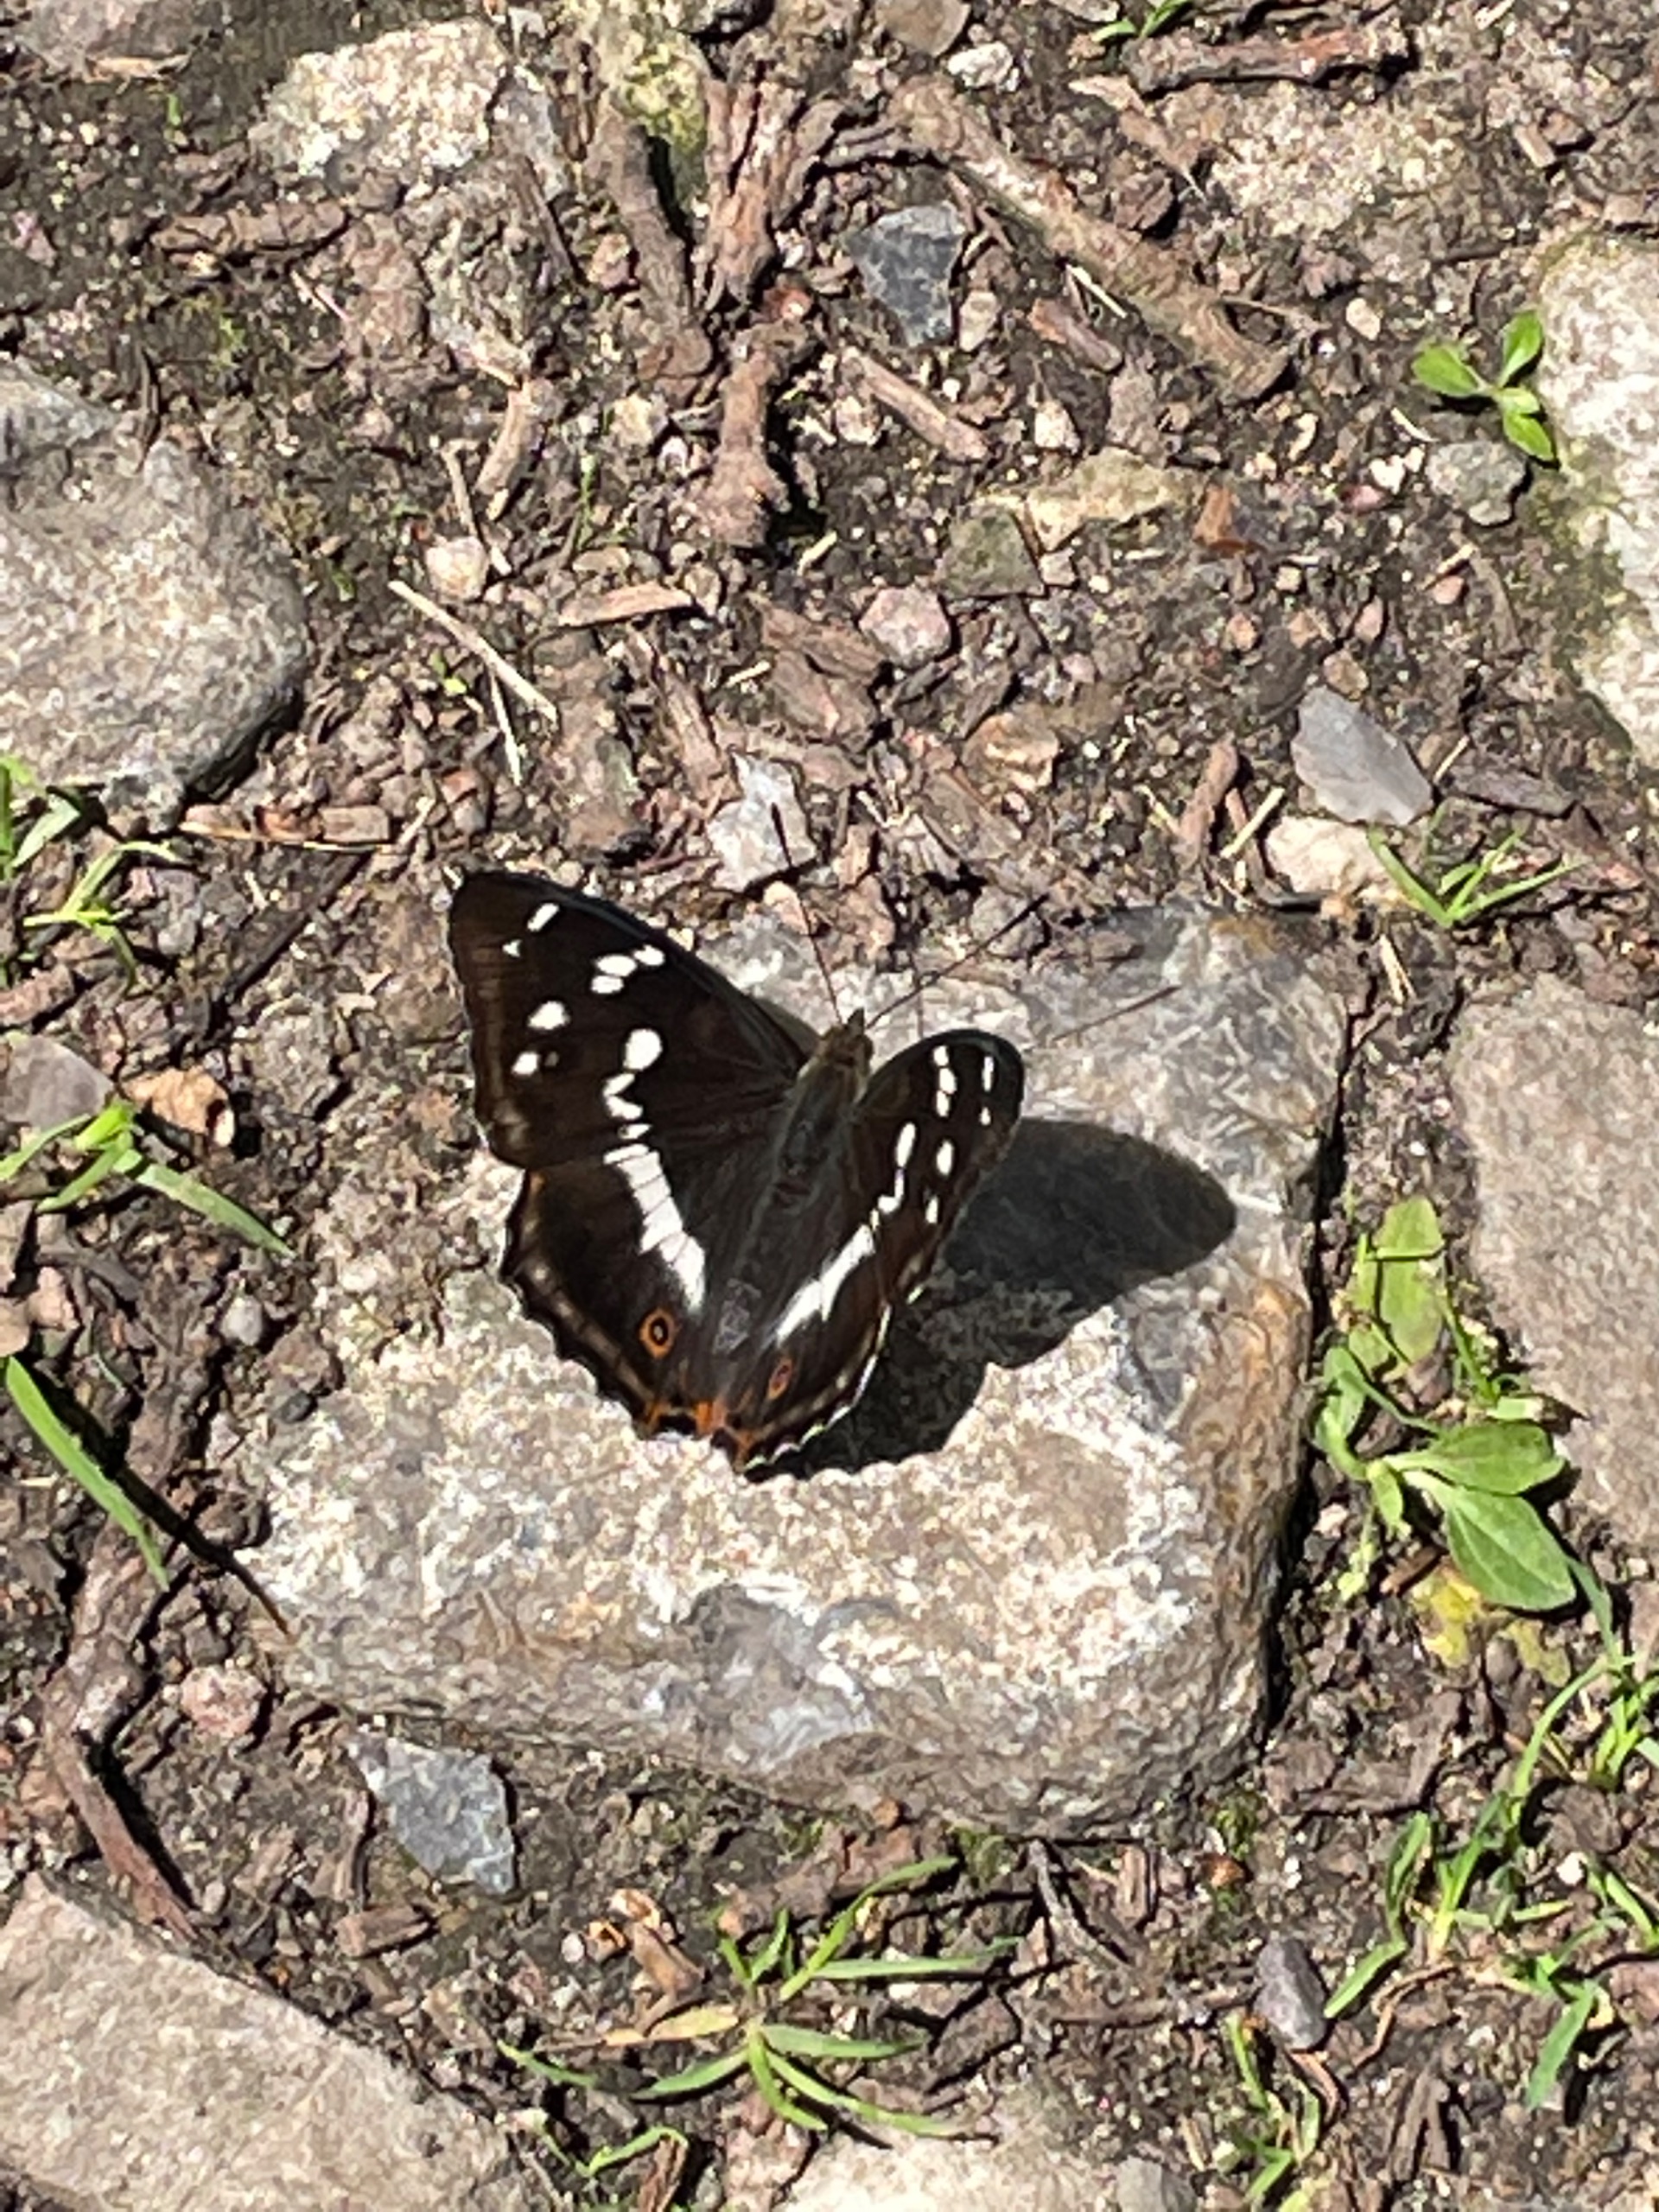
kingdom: Animalia
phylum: Arthropoda
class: Insecta
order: Lepidoptera
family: Nymphalidae
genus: Apatura
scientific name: Apatura iris
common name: Iris
